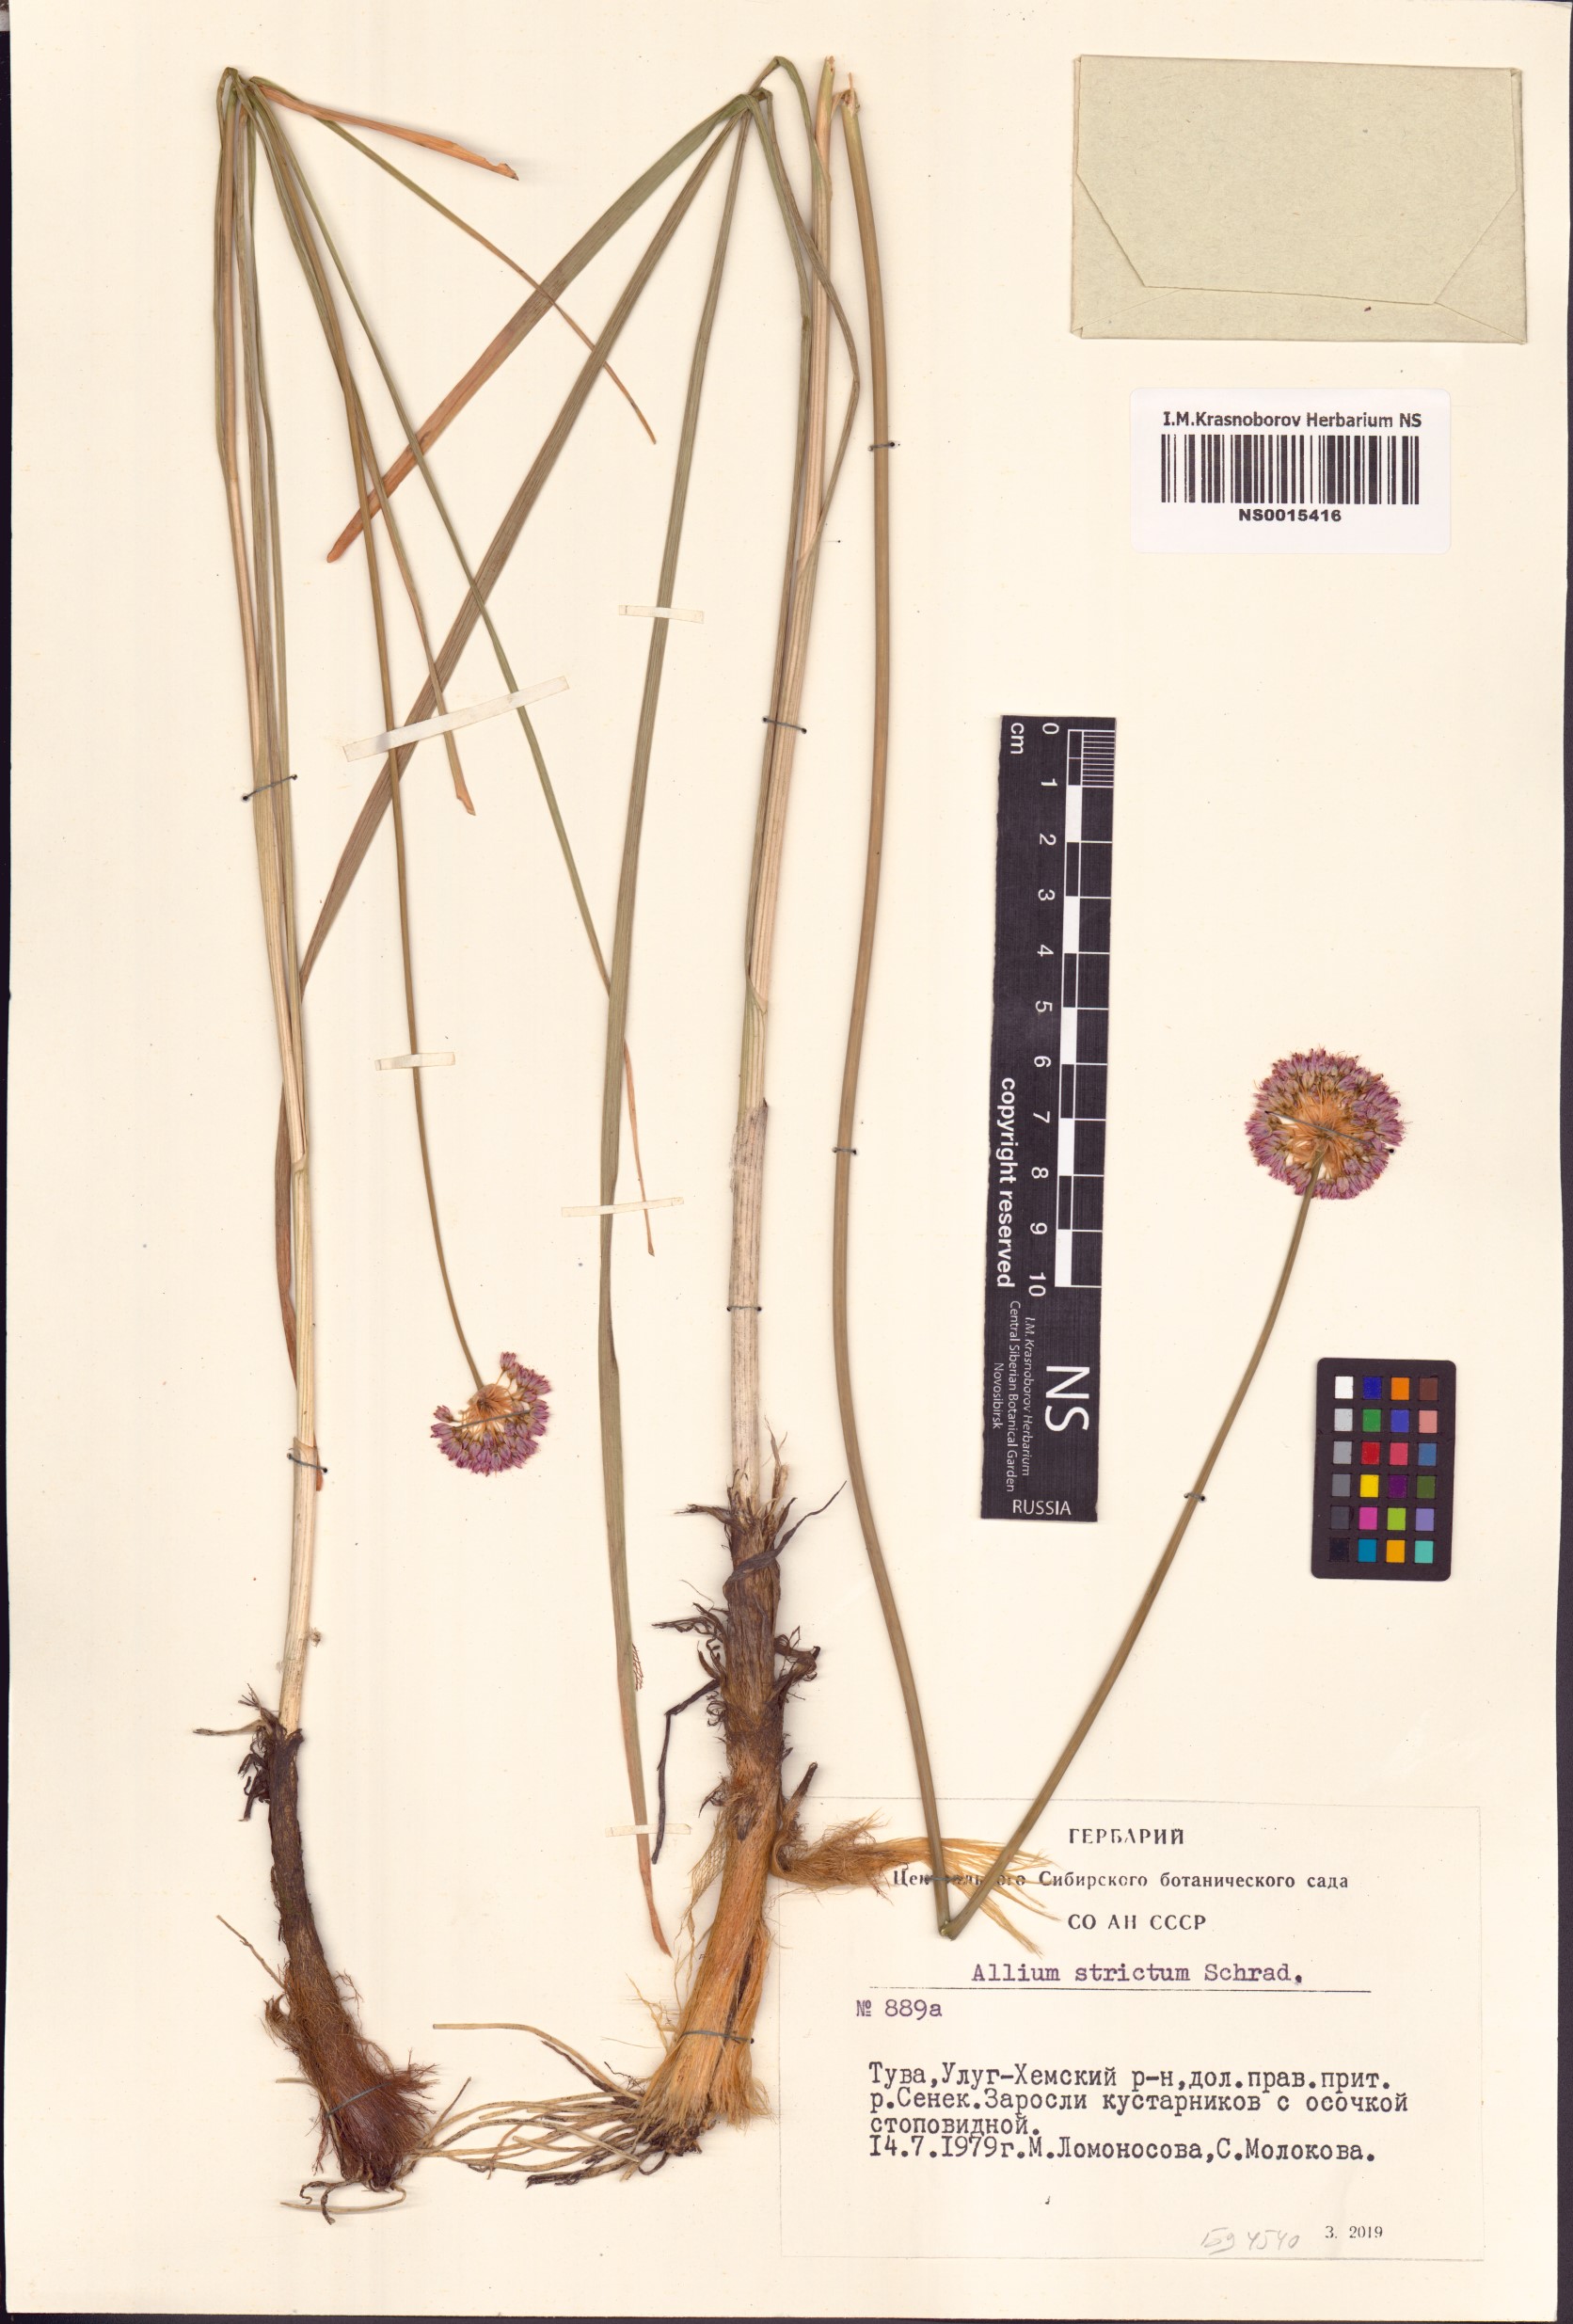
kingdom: Plantae
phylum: Tracheophyta
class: Liliopsida
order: Asparagales
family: Amaryllidaceae
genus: Allium
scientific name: Allium strictum
